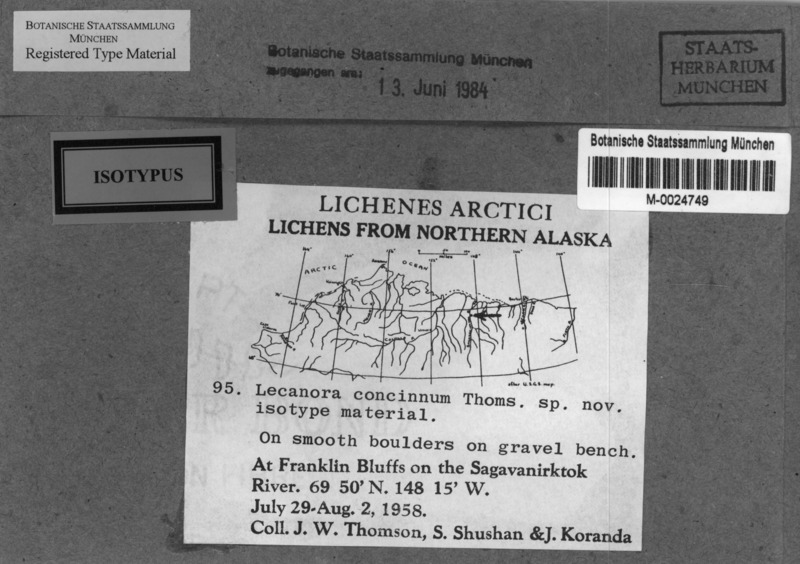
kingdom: Fungi
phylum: Ascomycota
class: Lecanoromycetes
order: Pertusariales
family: Megasporaceae
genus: Aspicilia
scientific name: Aspicilia connica
